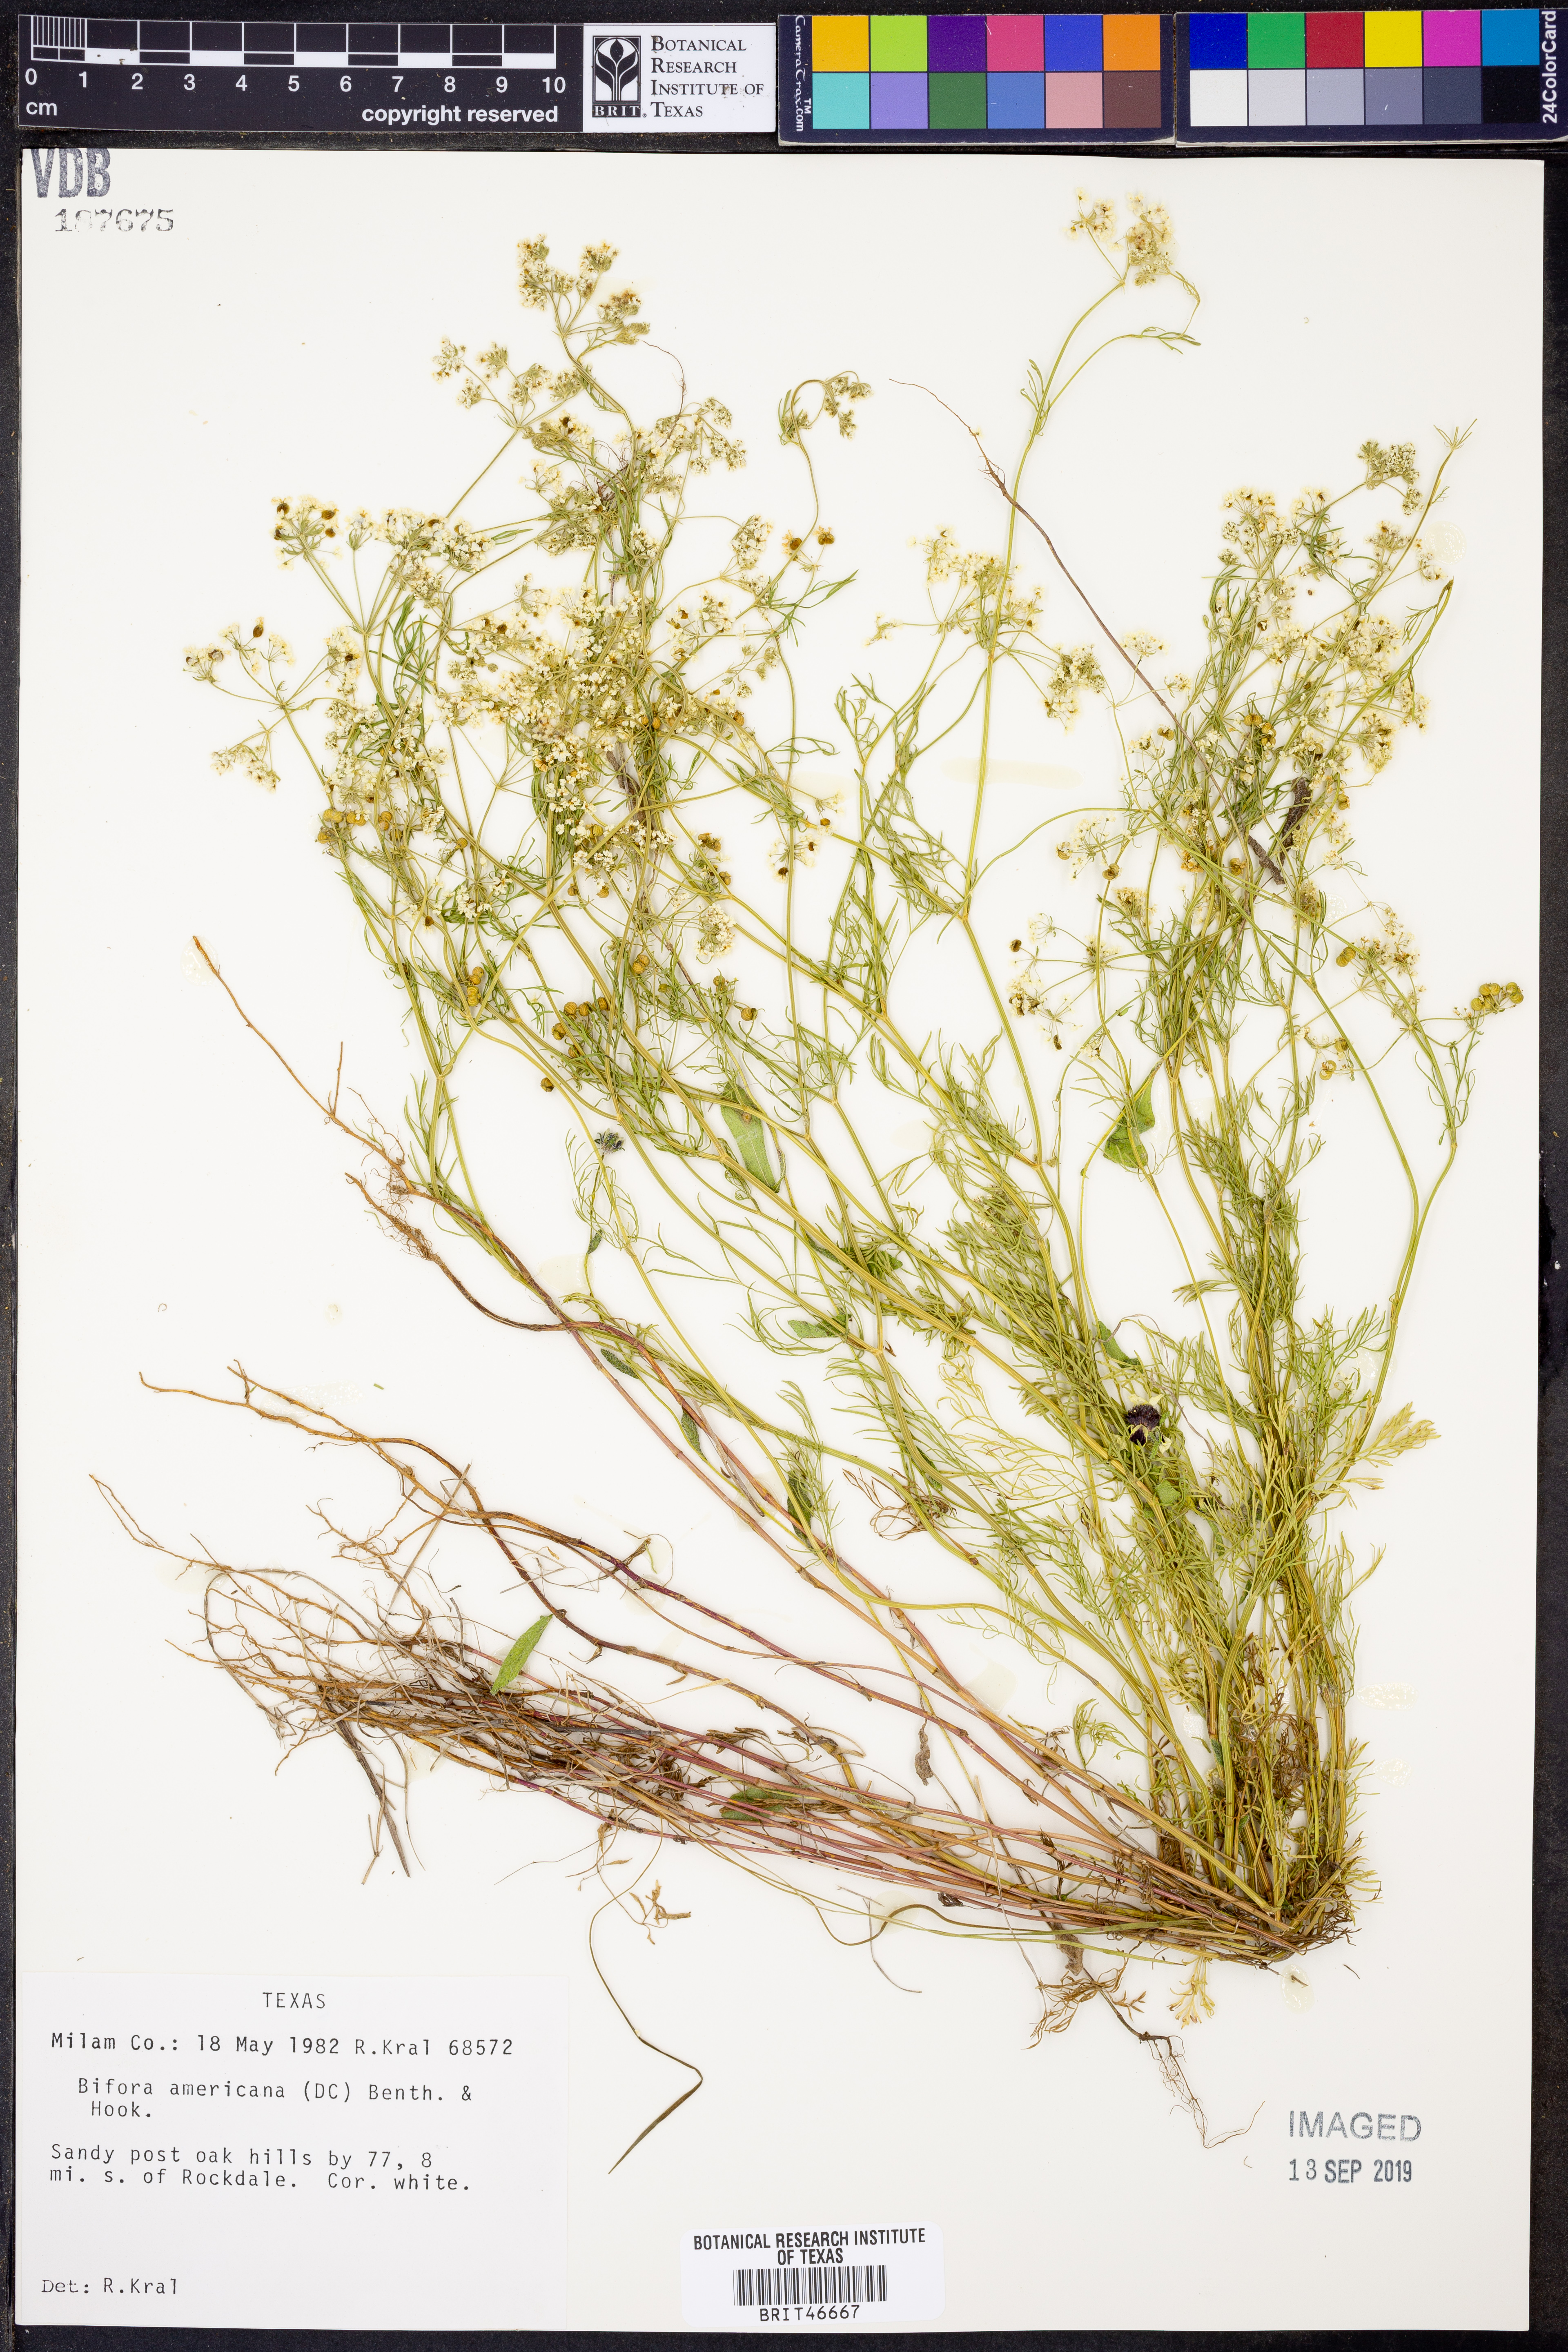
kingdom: Plantae
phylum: Tracheophyta
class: Magnoliopsida
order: Apiales
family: Apiaceae
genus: Atrema
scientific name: Atrema americanum
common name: Prairie-bishop
